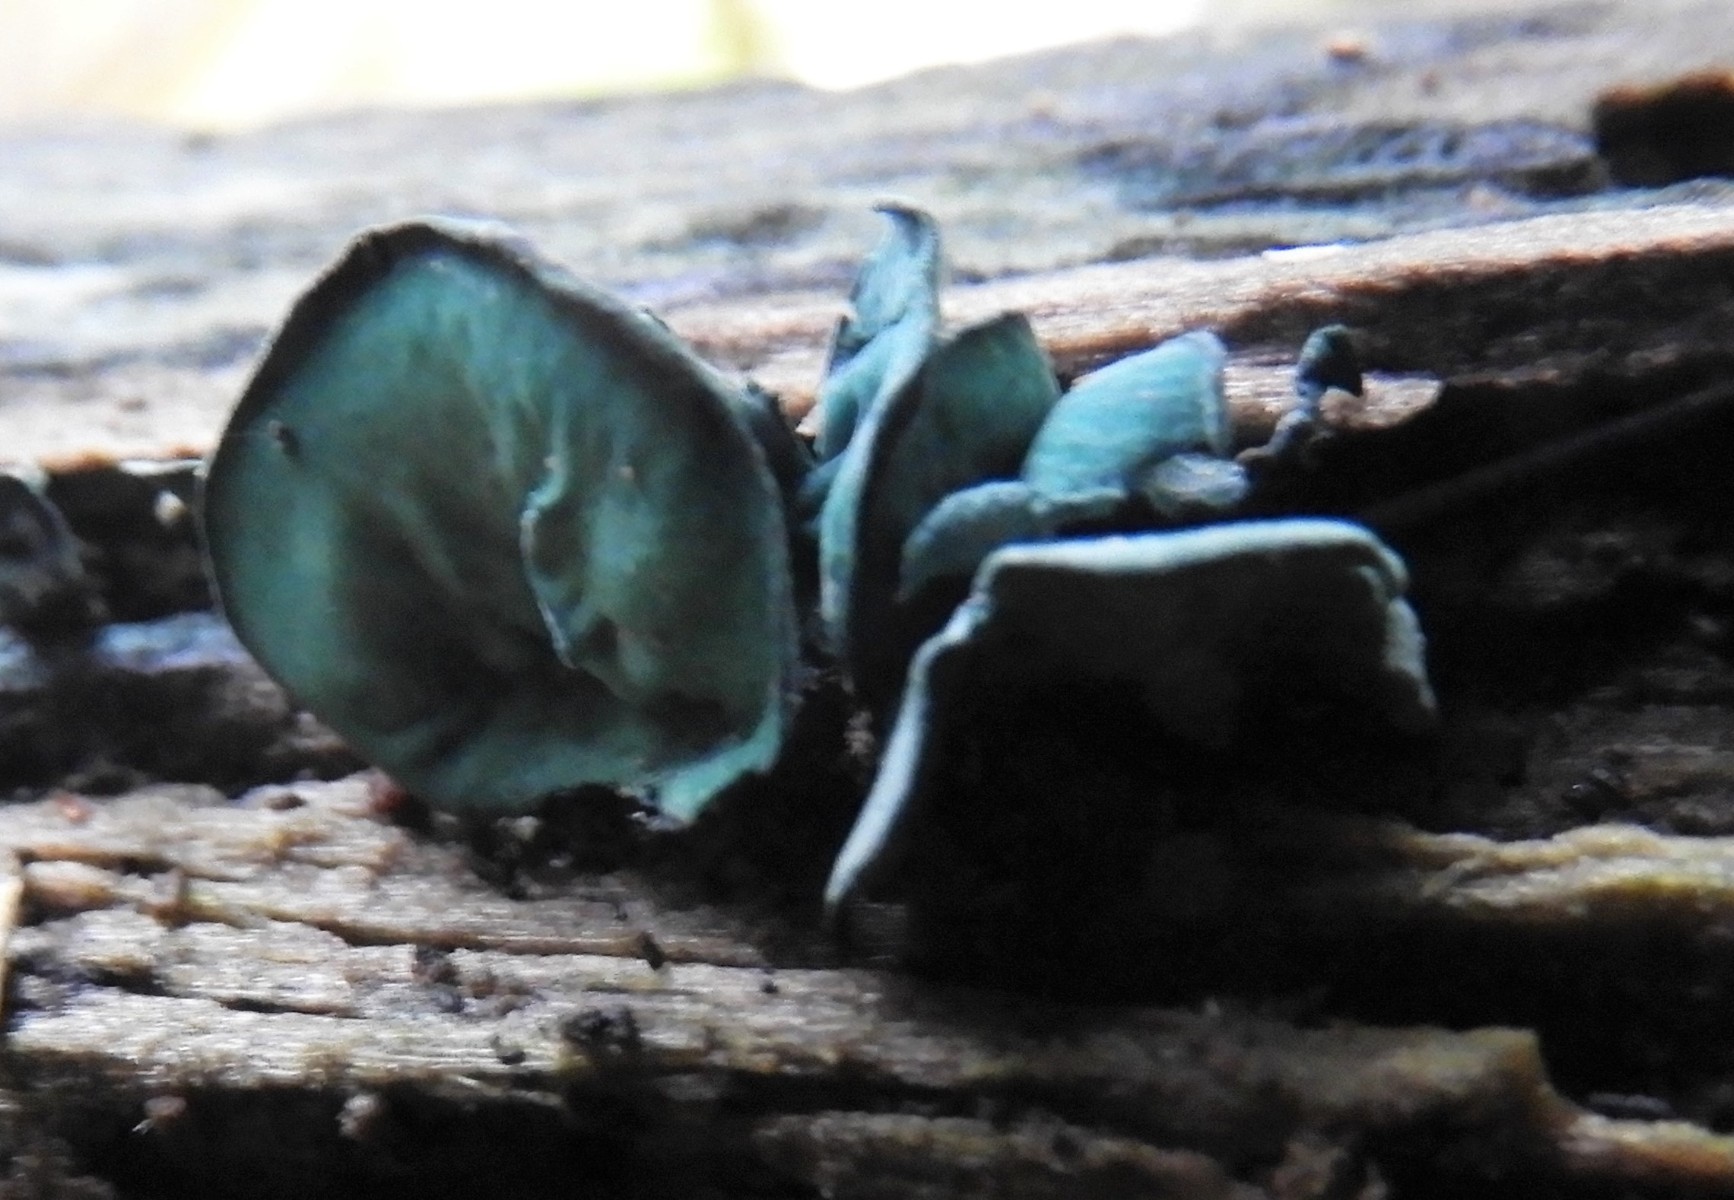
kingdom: Fungi
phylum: Ascomycota
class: Leotiomycetes
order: Helotiales
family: Chlorociboriaceae
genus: Chlorociboria
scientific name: Chlorociboria aeruginascens
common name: almindelig grønskive
